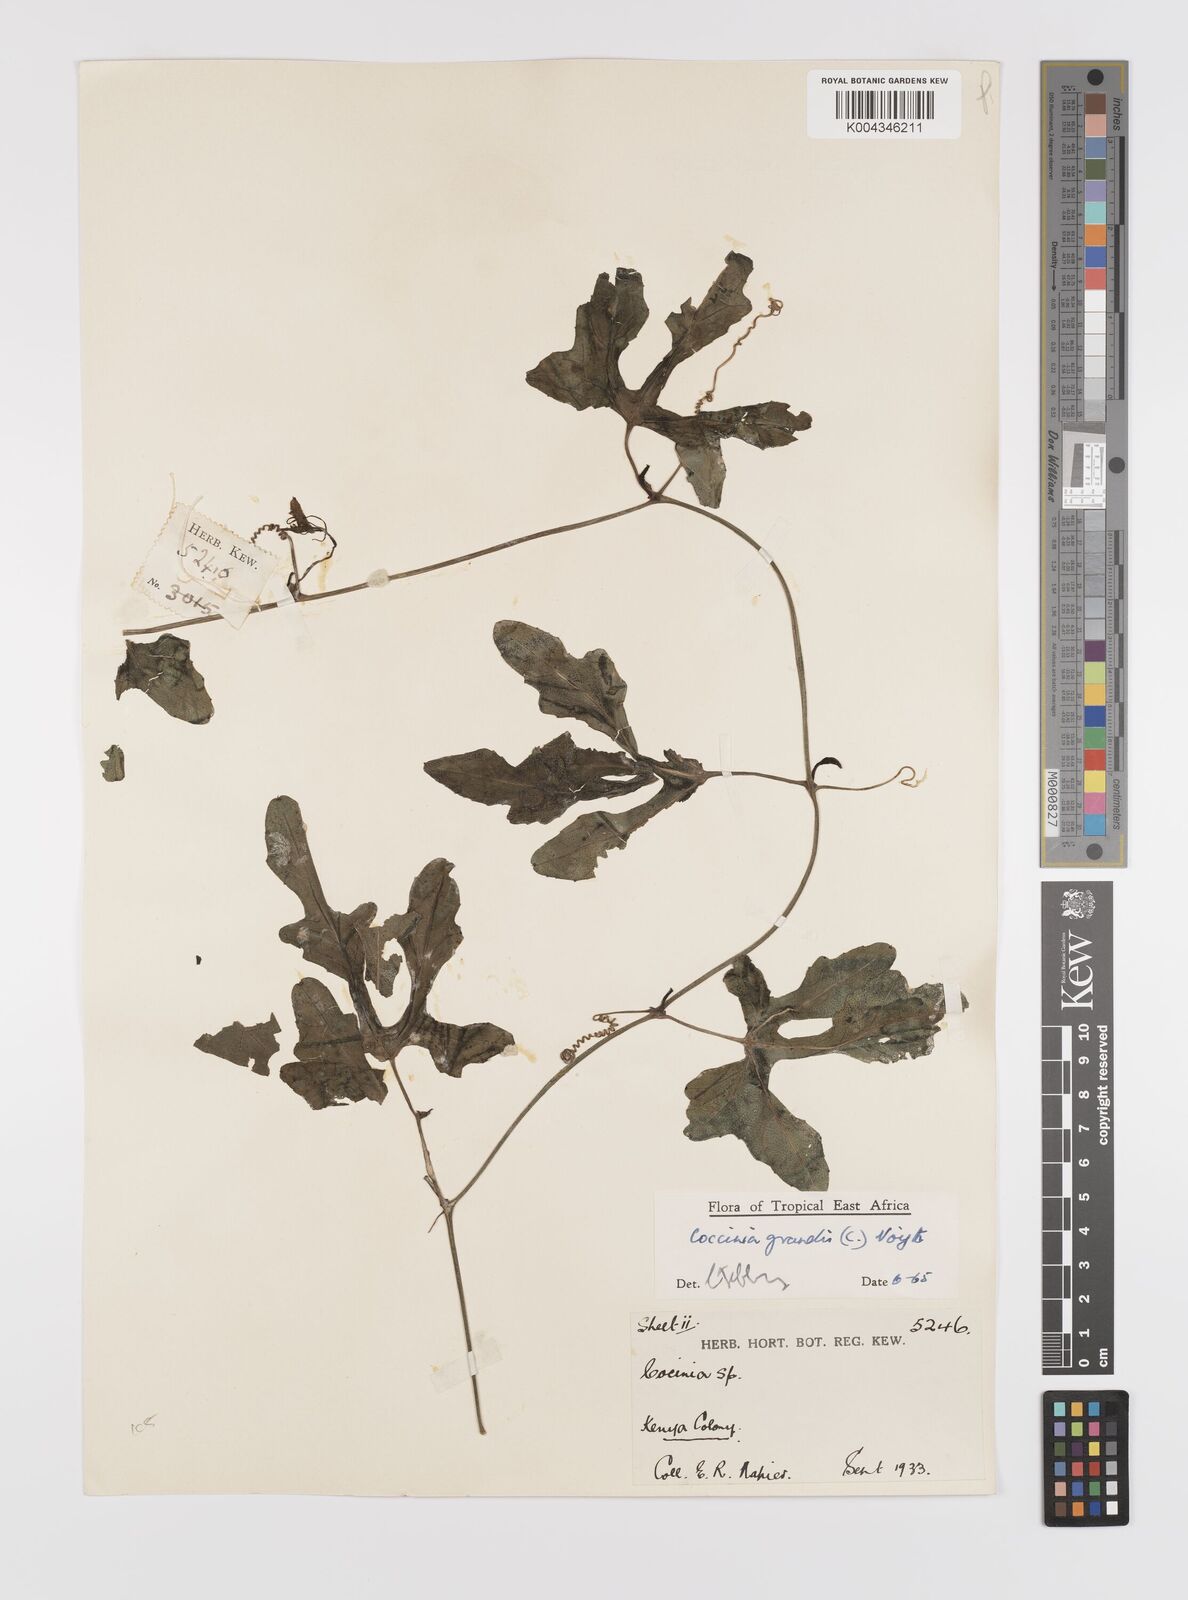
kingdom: Plantae
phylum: Tracheophyta
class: Magnoliopsida
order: Cucurbitales
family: Cucurbitaceae
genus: Coccinia
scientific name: Coccinia grandis
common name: Ivy gourd
